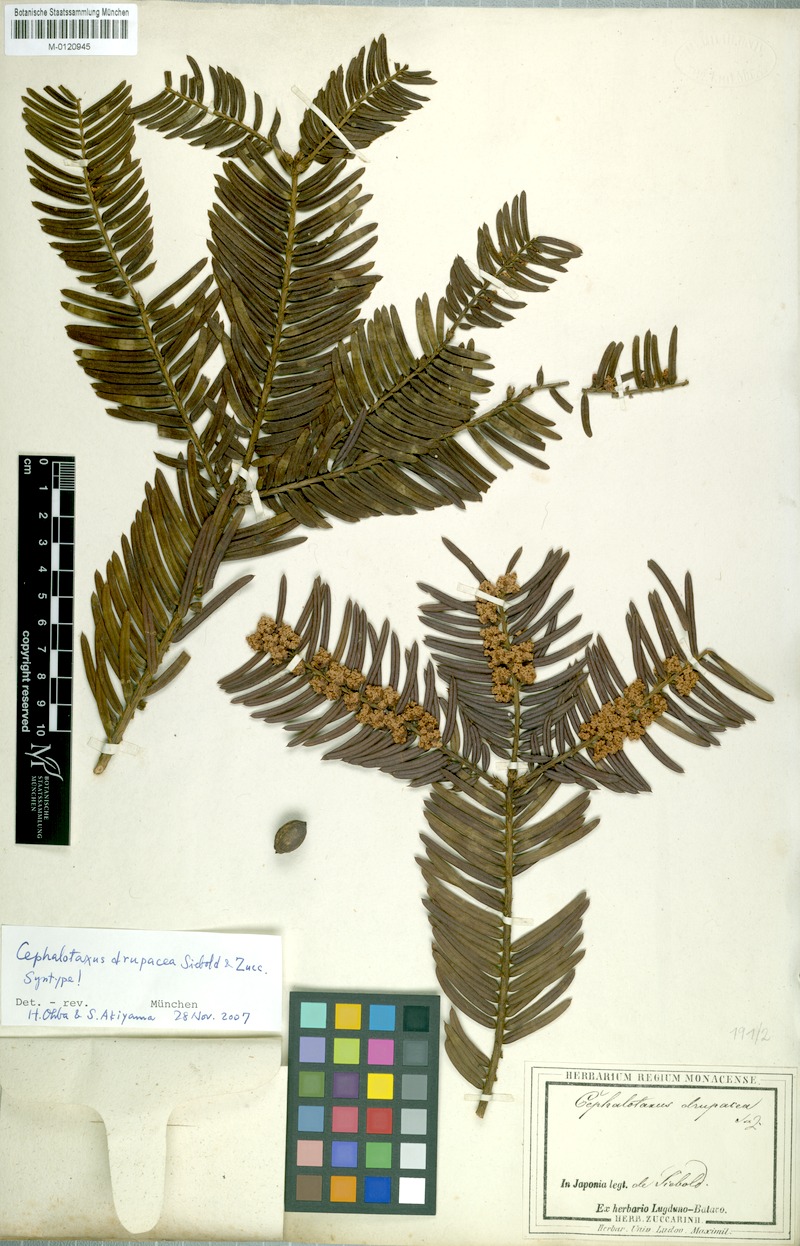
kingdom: Plantae
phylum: Tracheophyta
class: Pinopsida
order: Pinales
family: Cephalotaxaceae
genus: Cephalotaxus
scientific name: Cephalotaxus harringtonii
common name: Harrington's plum yew
